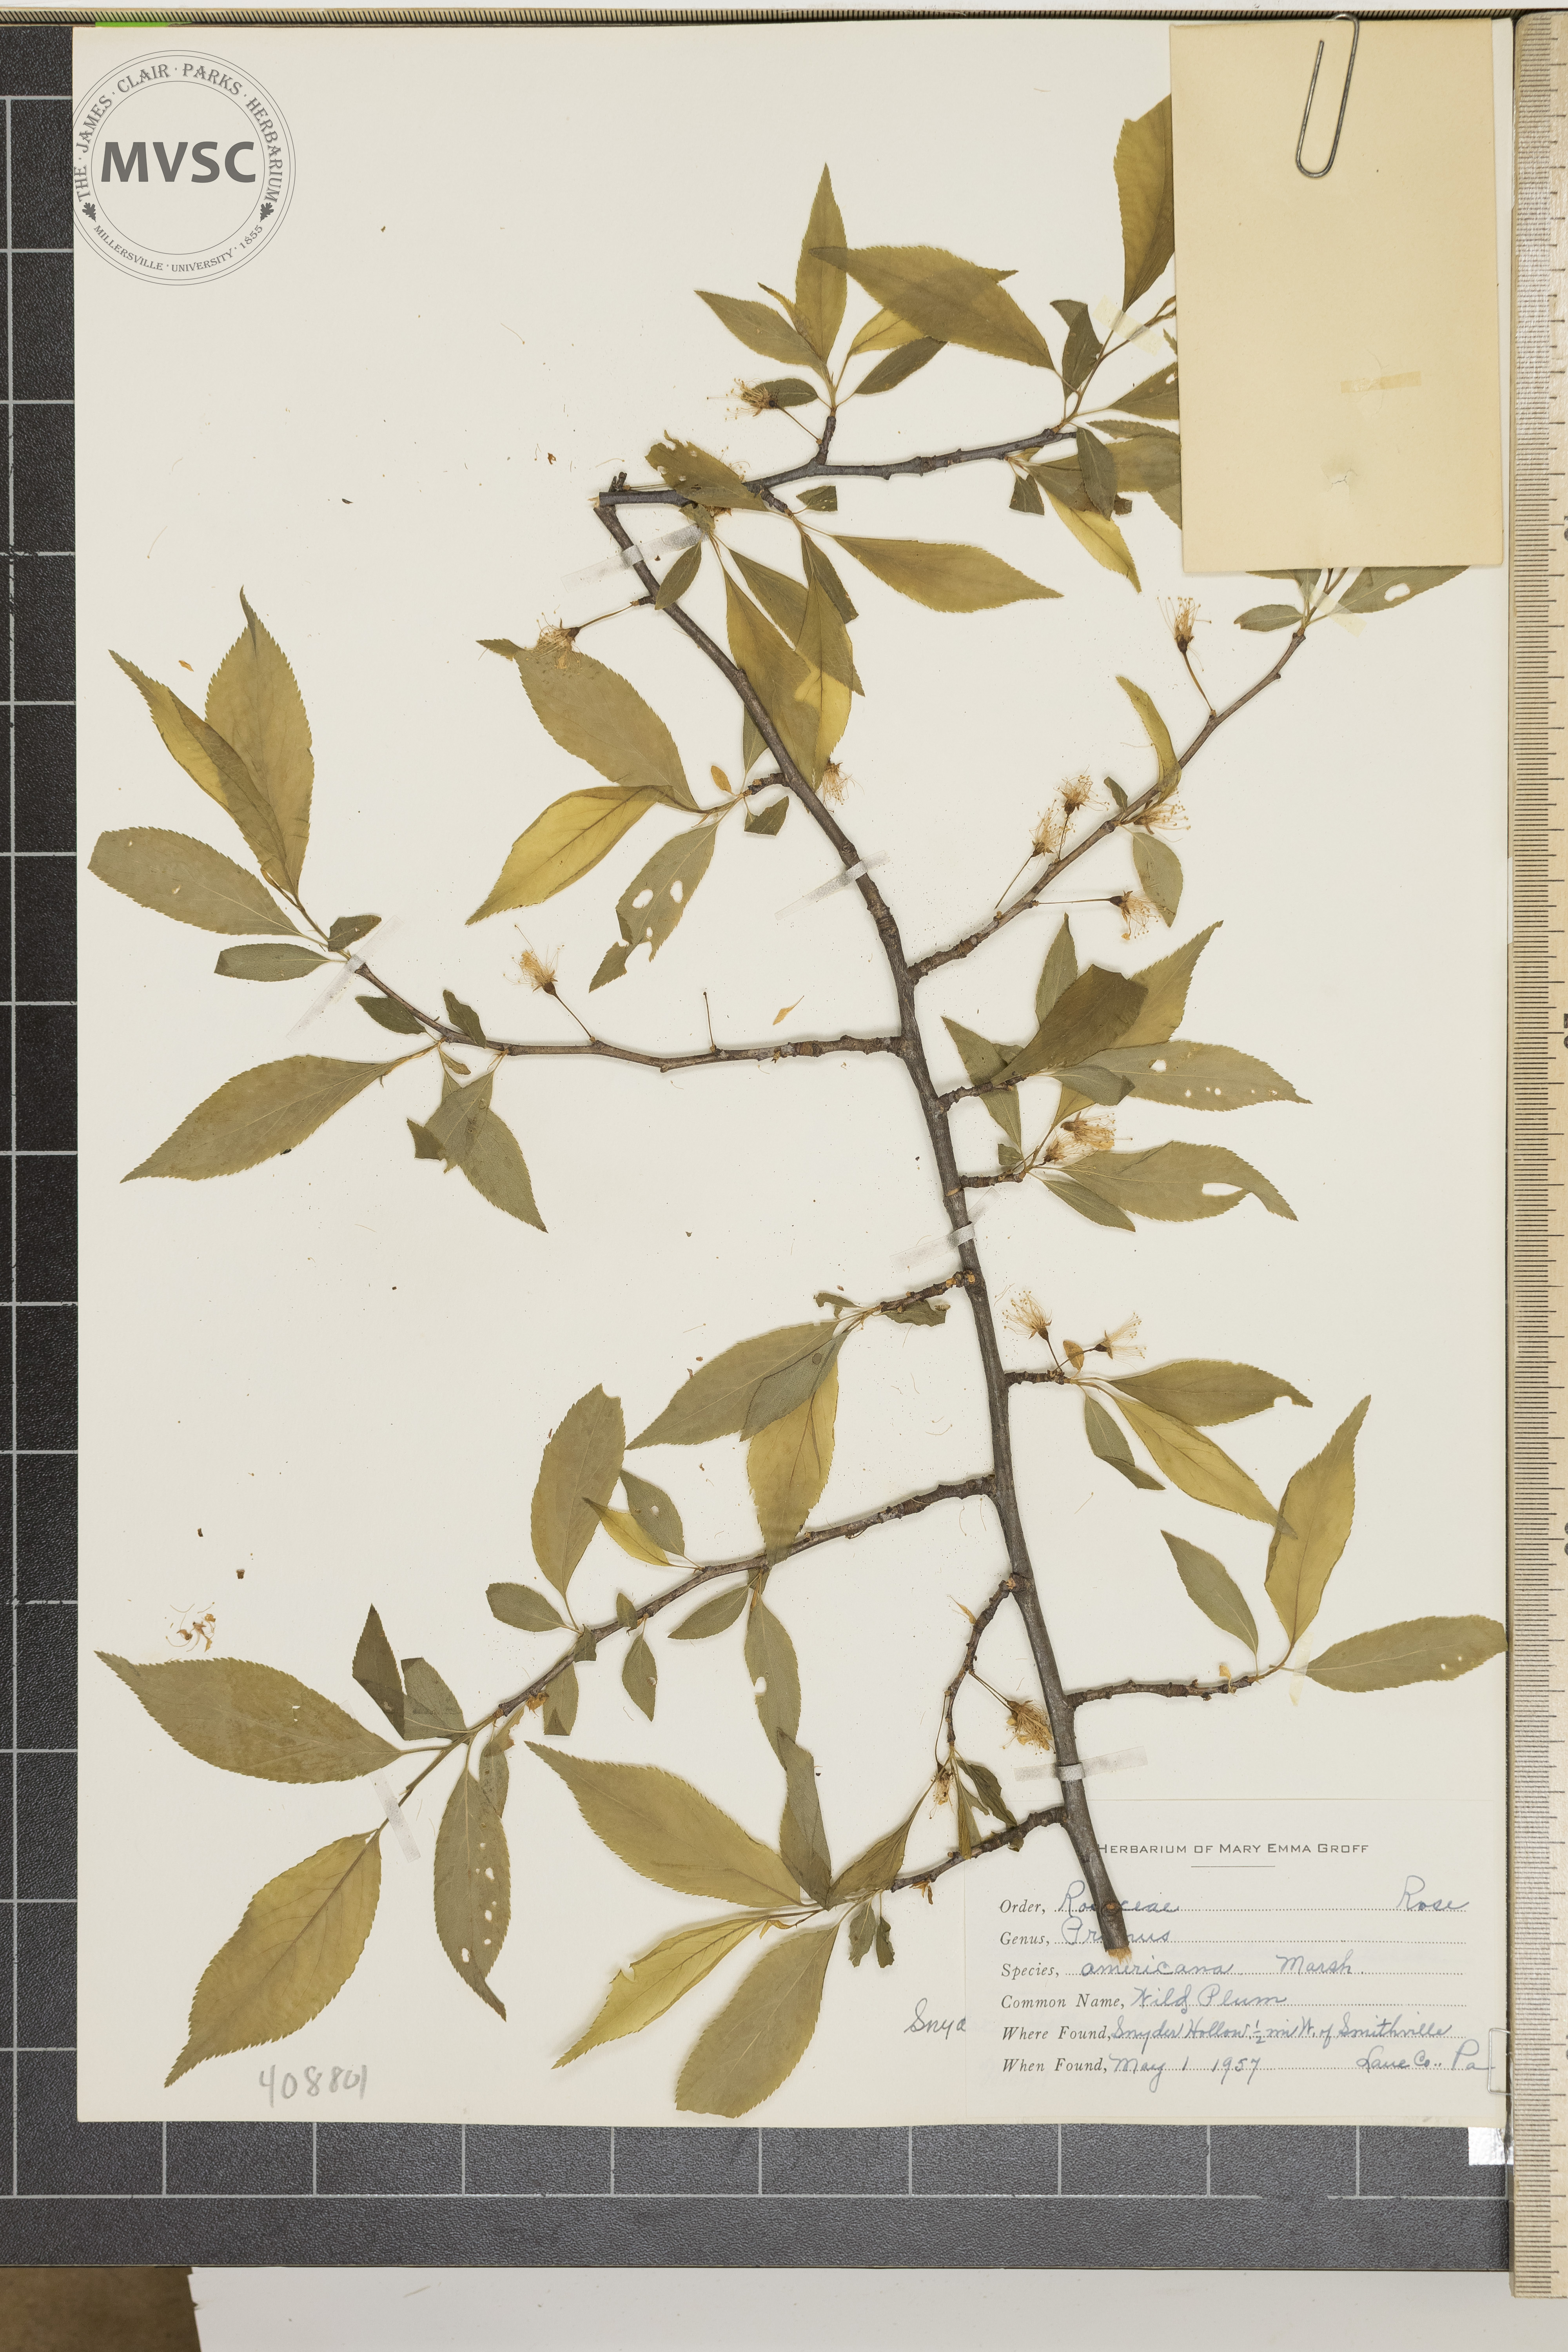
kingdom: Plantae
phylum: Tracheophyta
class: Magnoliopsida
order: Rosales
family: Rosaceae
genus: Prunus
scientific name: Prunus americana
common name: Wild Plum
